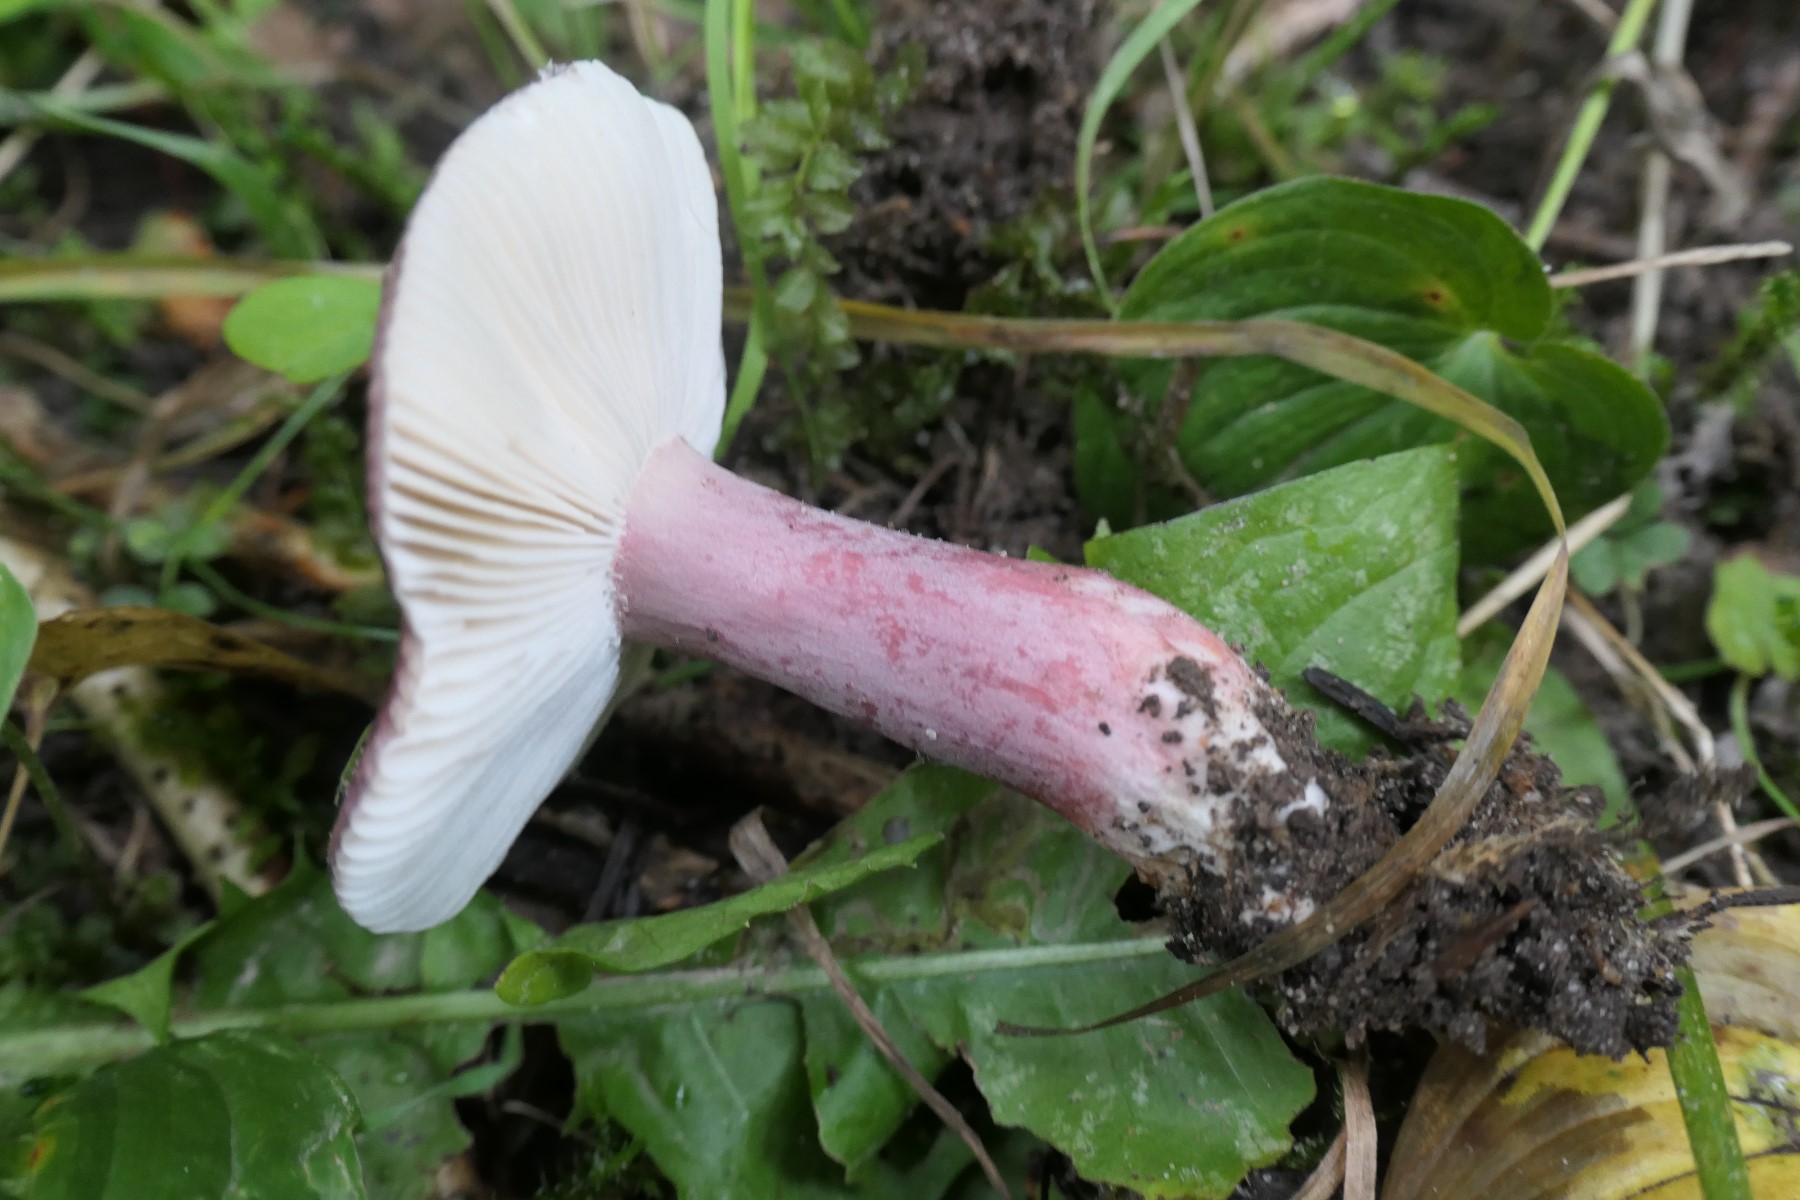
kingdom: Fungi
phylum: Basidiomycota
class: Agaricomycetes
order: Russulales
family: Russulaceae
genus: Russula
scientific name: Russula queletii
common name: Quélets skørhat
